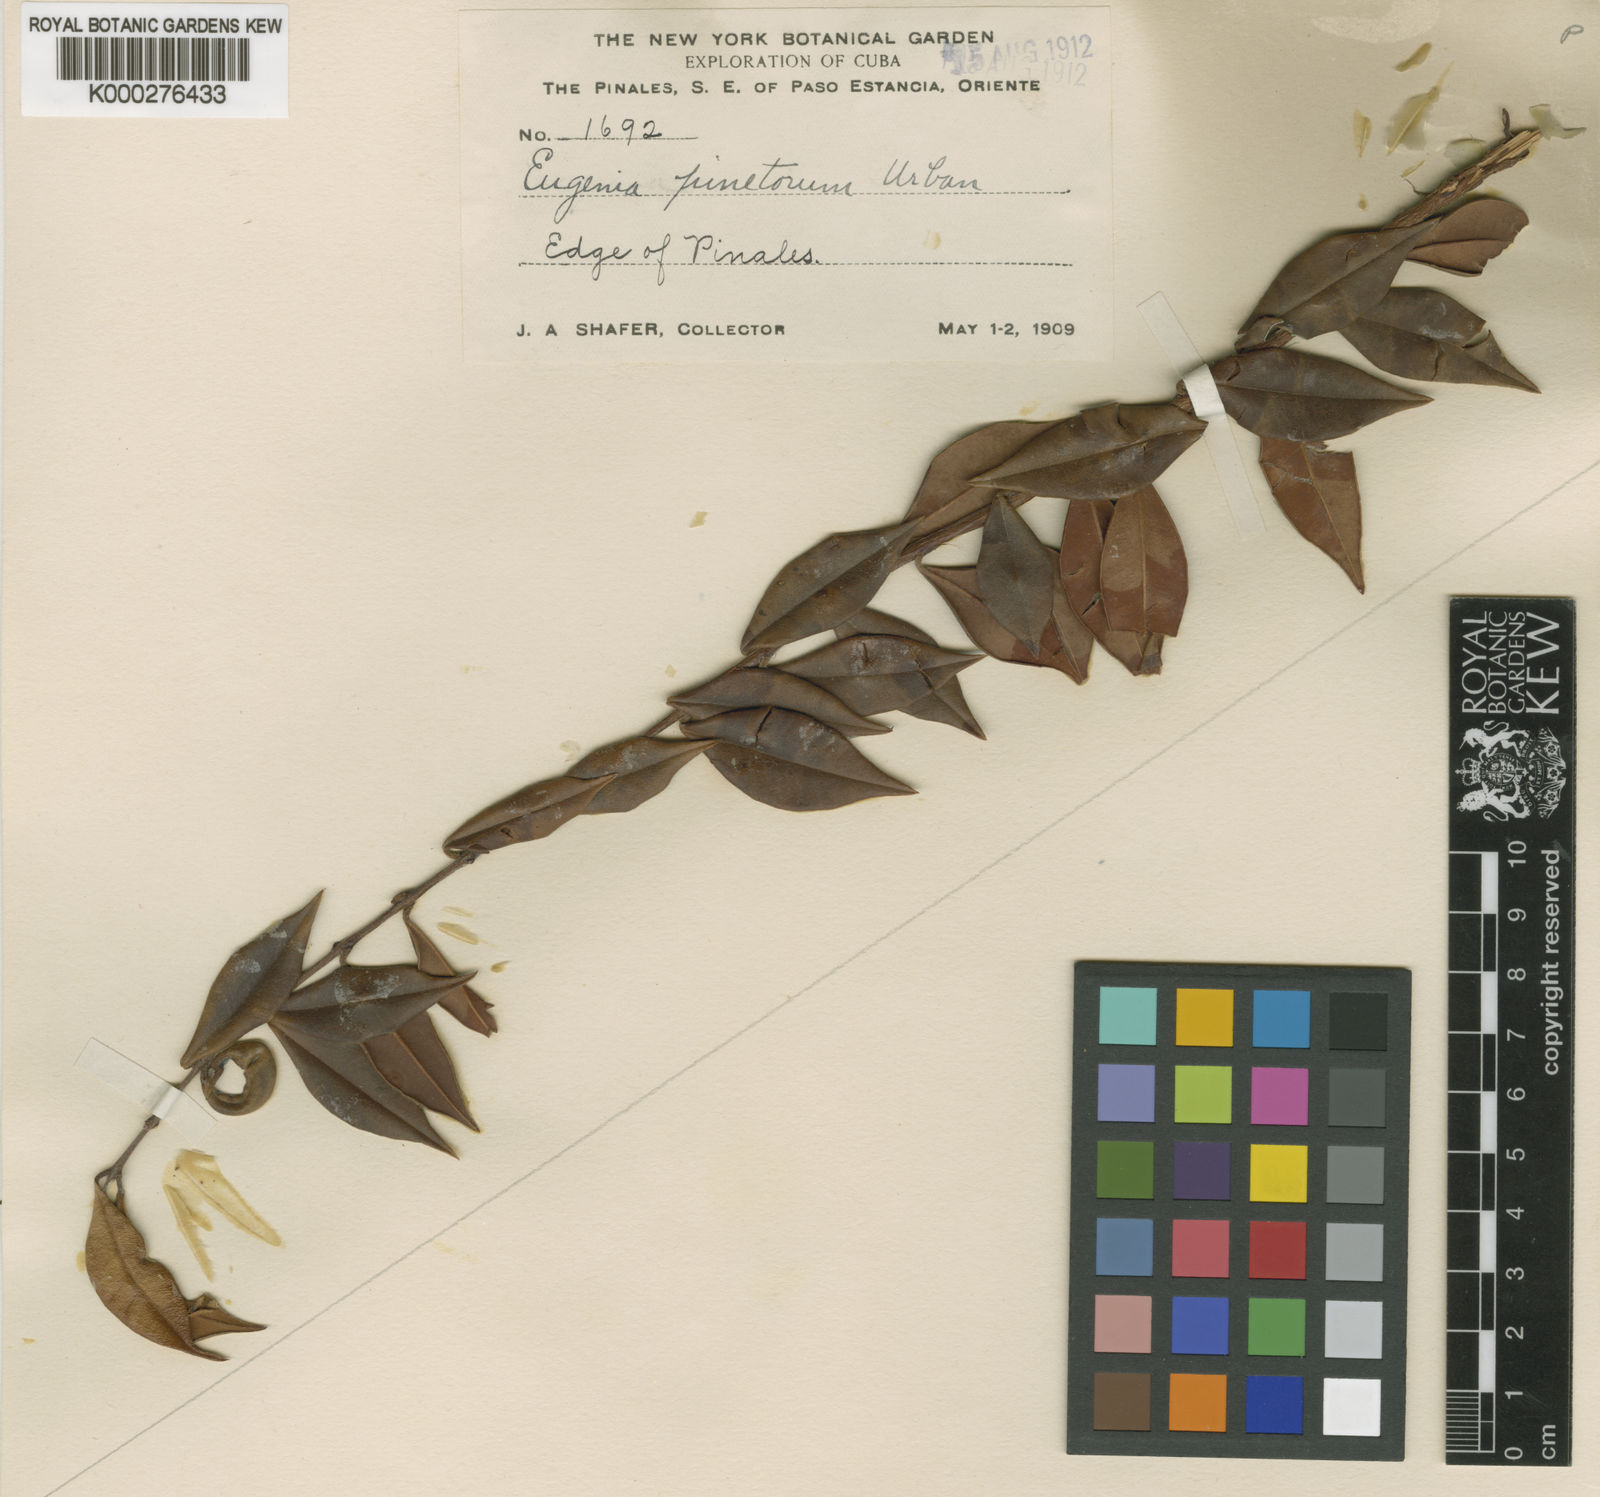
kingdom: Plantae
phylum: Tracheophyta
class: Magnoliopsida
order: Myrtales
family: Myrtaceae
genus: Eugenia
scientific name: Eugenia pinetorum
